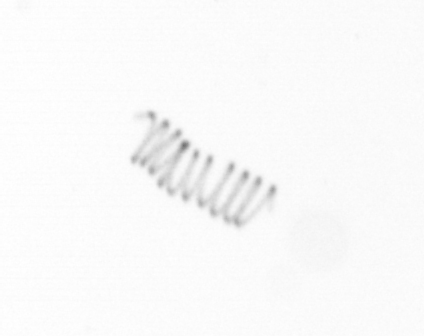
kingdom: Chromista
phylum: Ochrophyta
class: Bacillariophyceae
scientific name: Bacillariophyceae
